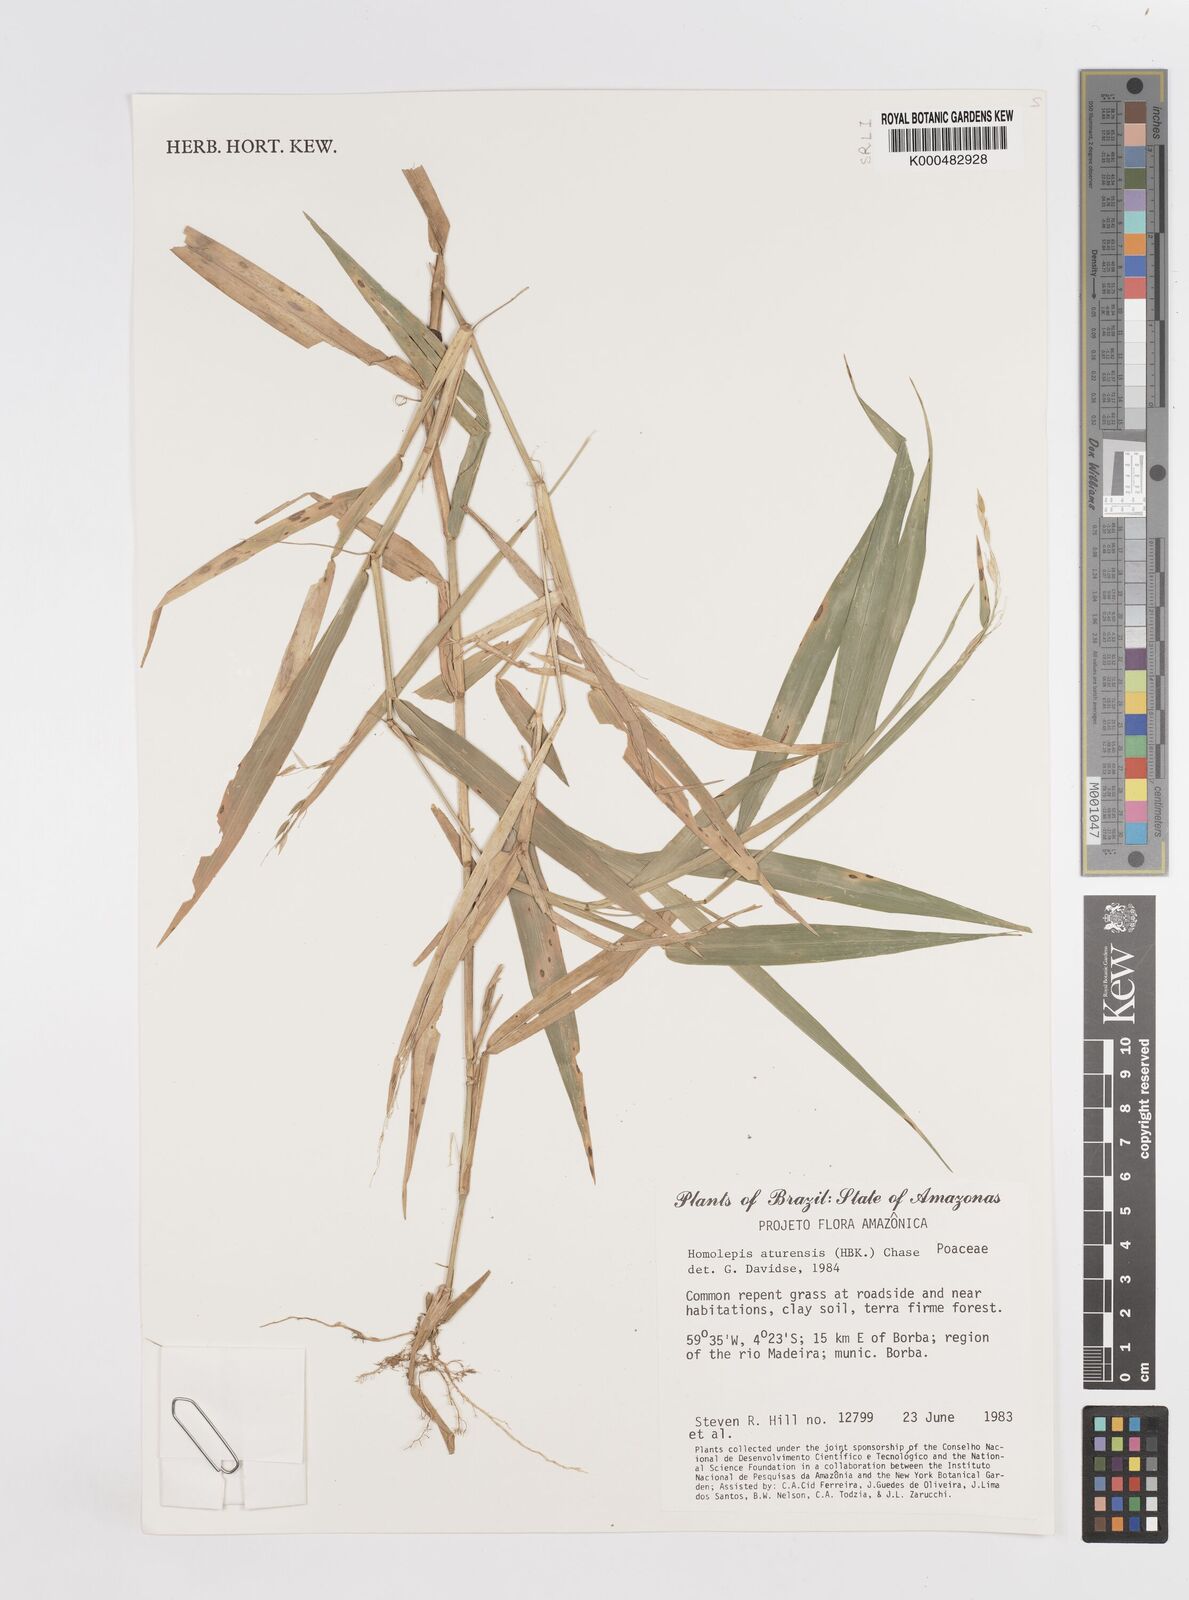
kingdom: Plantae
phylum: Tracheophyta
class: Liliopsida
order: Poales
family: Poaceae
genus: Homolepis
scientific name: Homolepis aturensis
